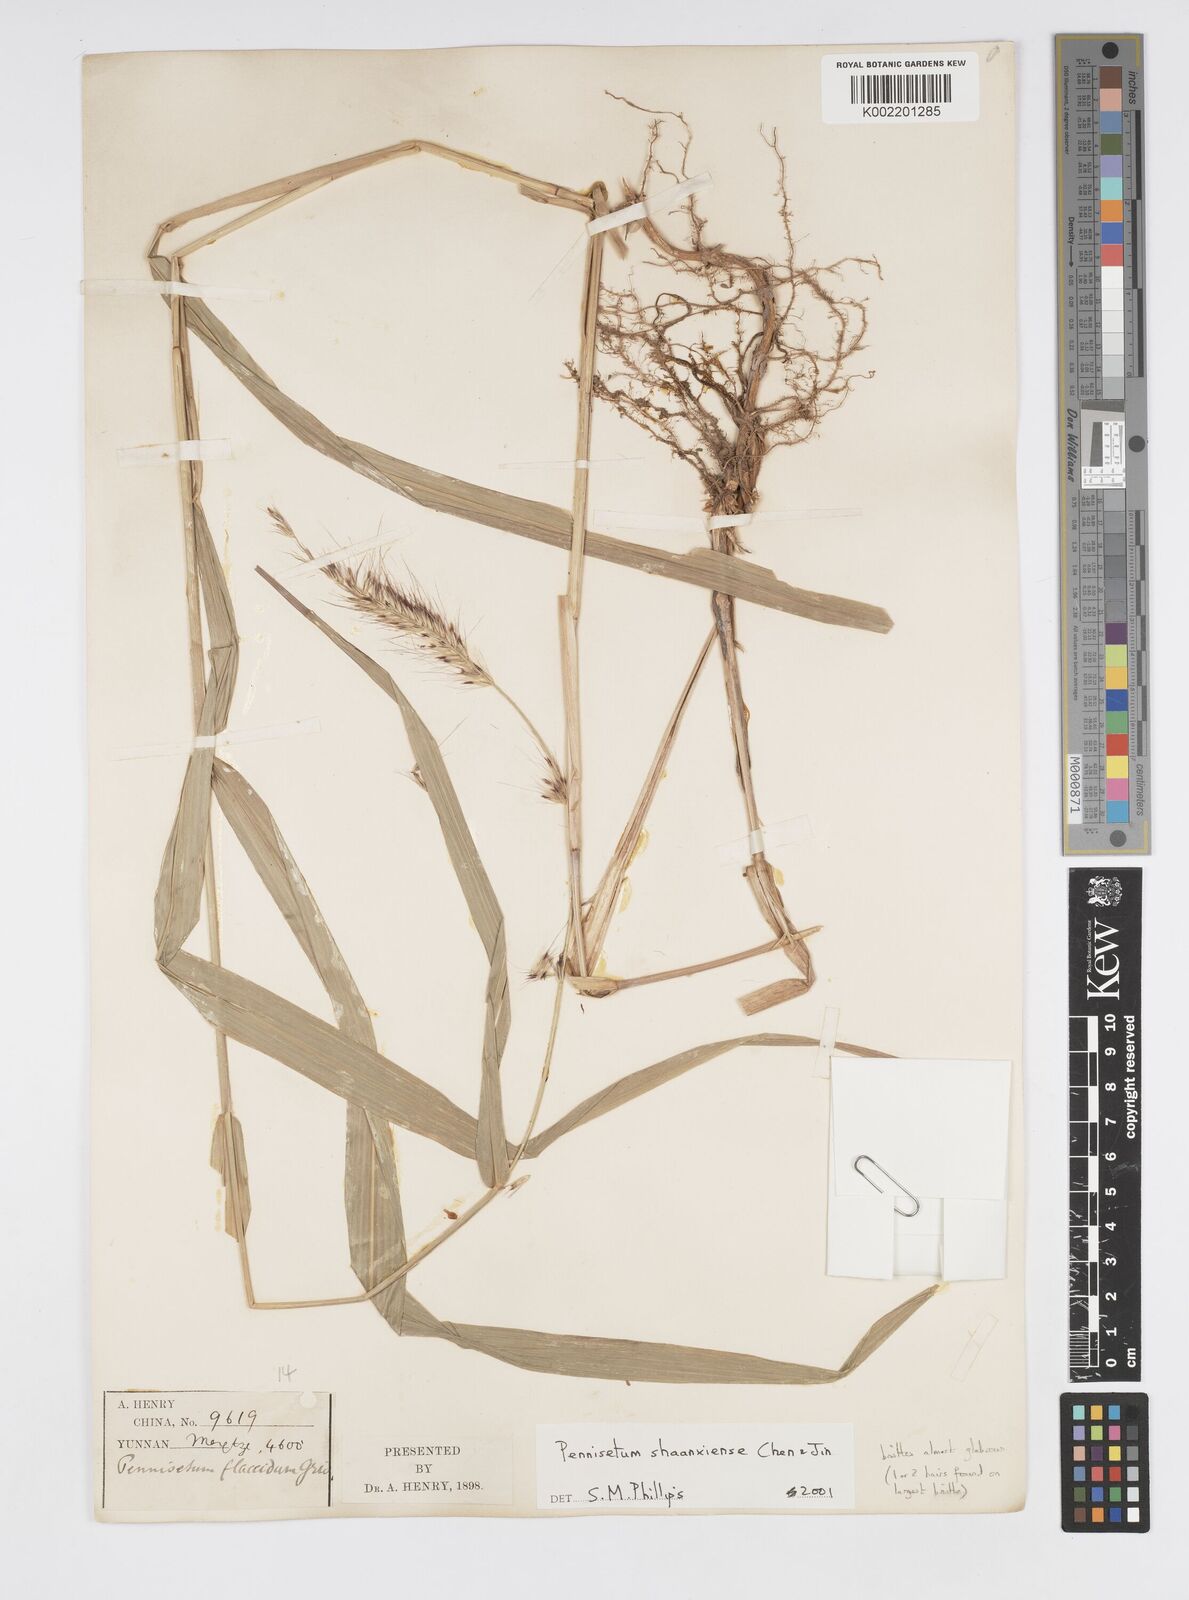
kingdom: Plantae
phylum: Tracheophyta
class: Liliopsida
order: Poales
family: Poaceae
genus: Cenchrus
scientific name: Cenchrus shaanxiensis
